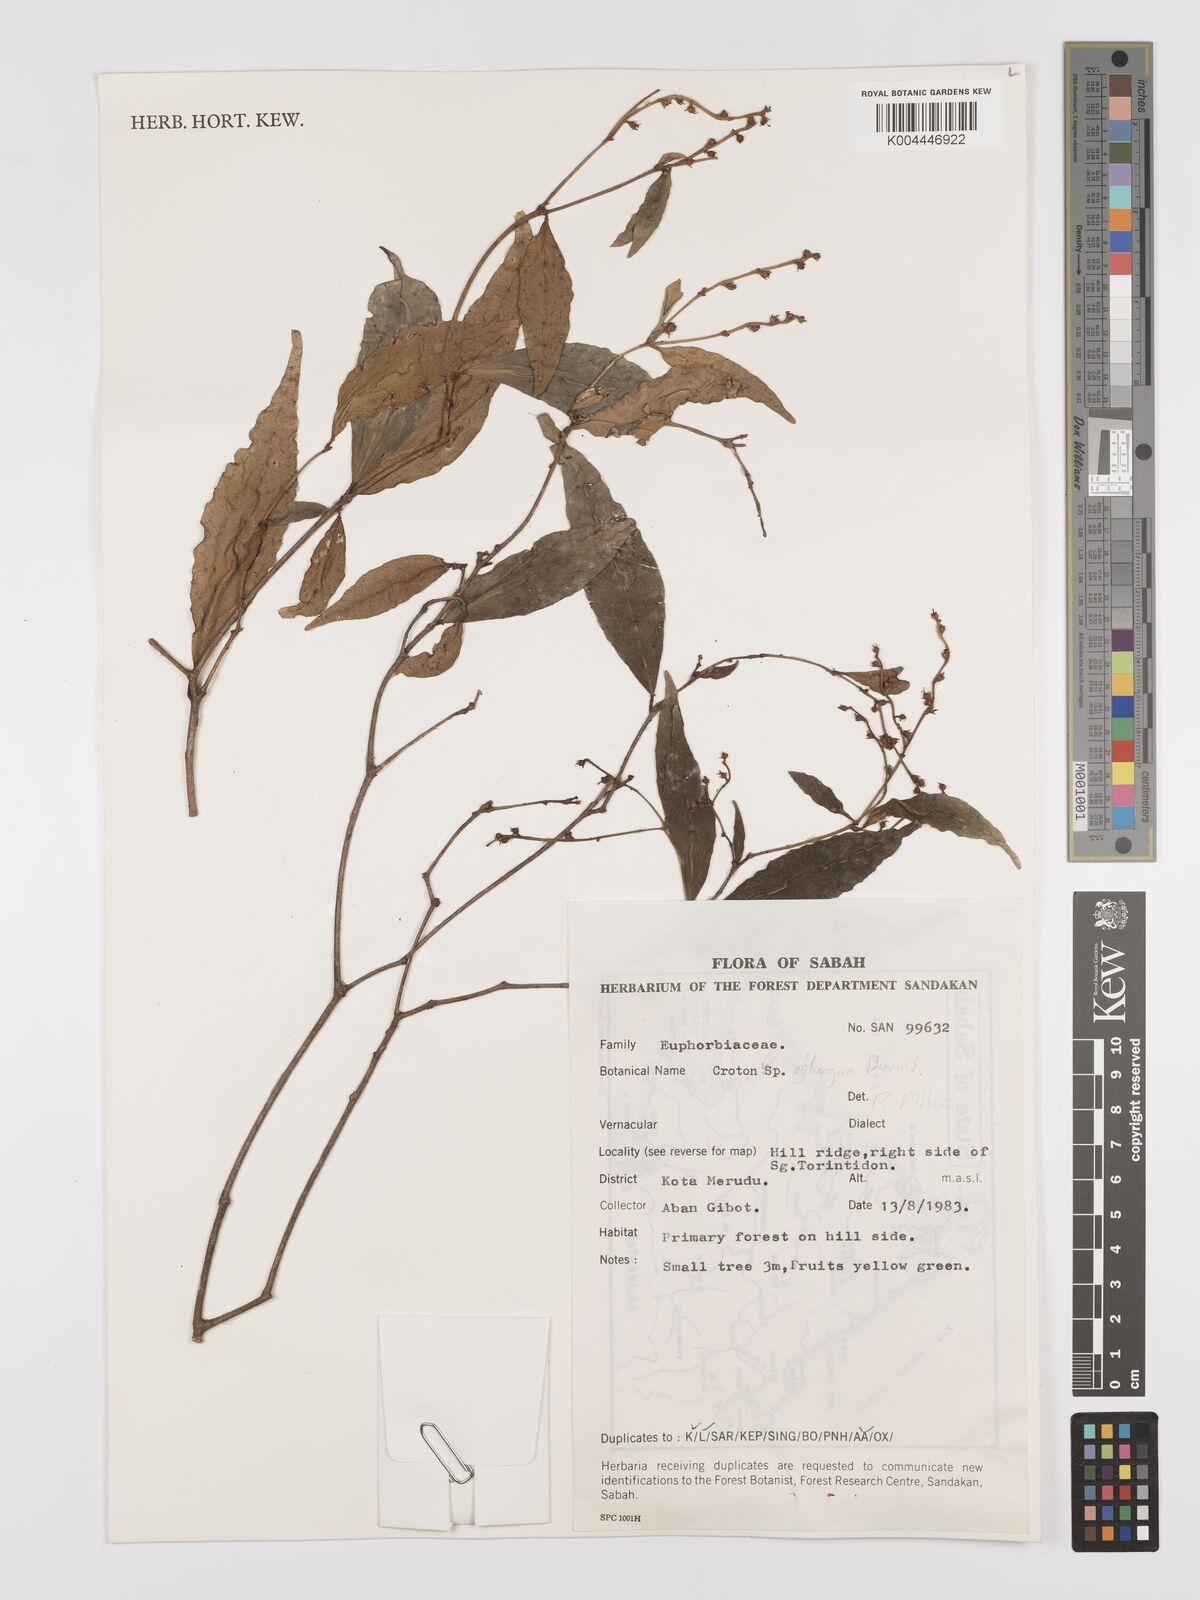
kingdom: Plantae
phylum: Tracheophyta
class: Magnoliopsida
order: Malpighiales
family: Euphorbiaceae
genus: Croton
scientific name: Croton
